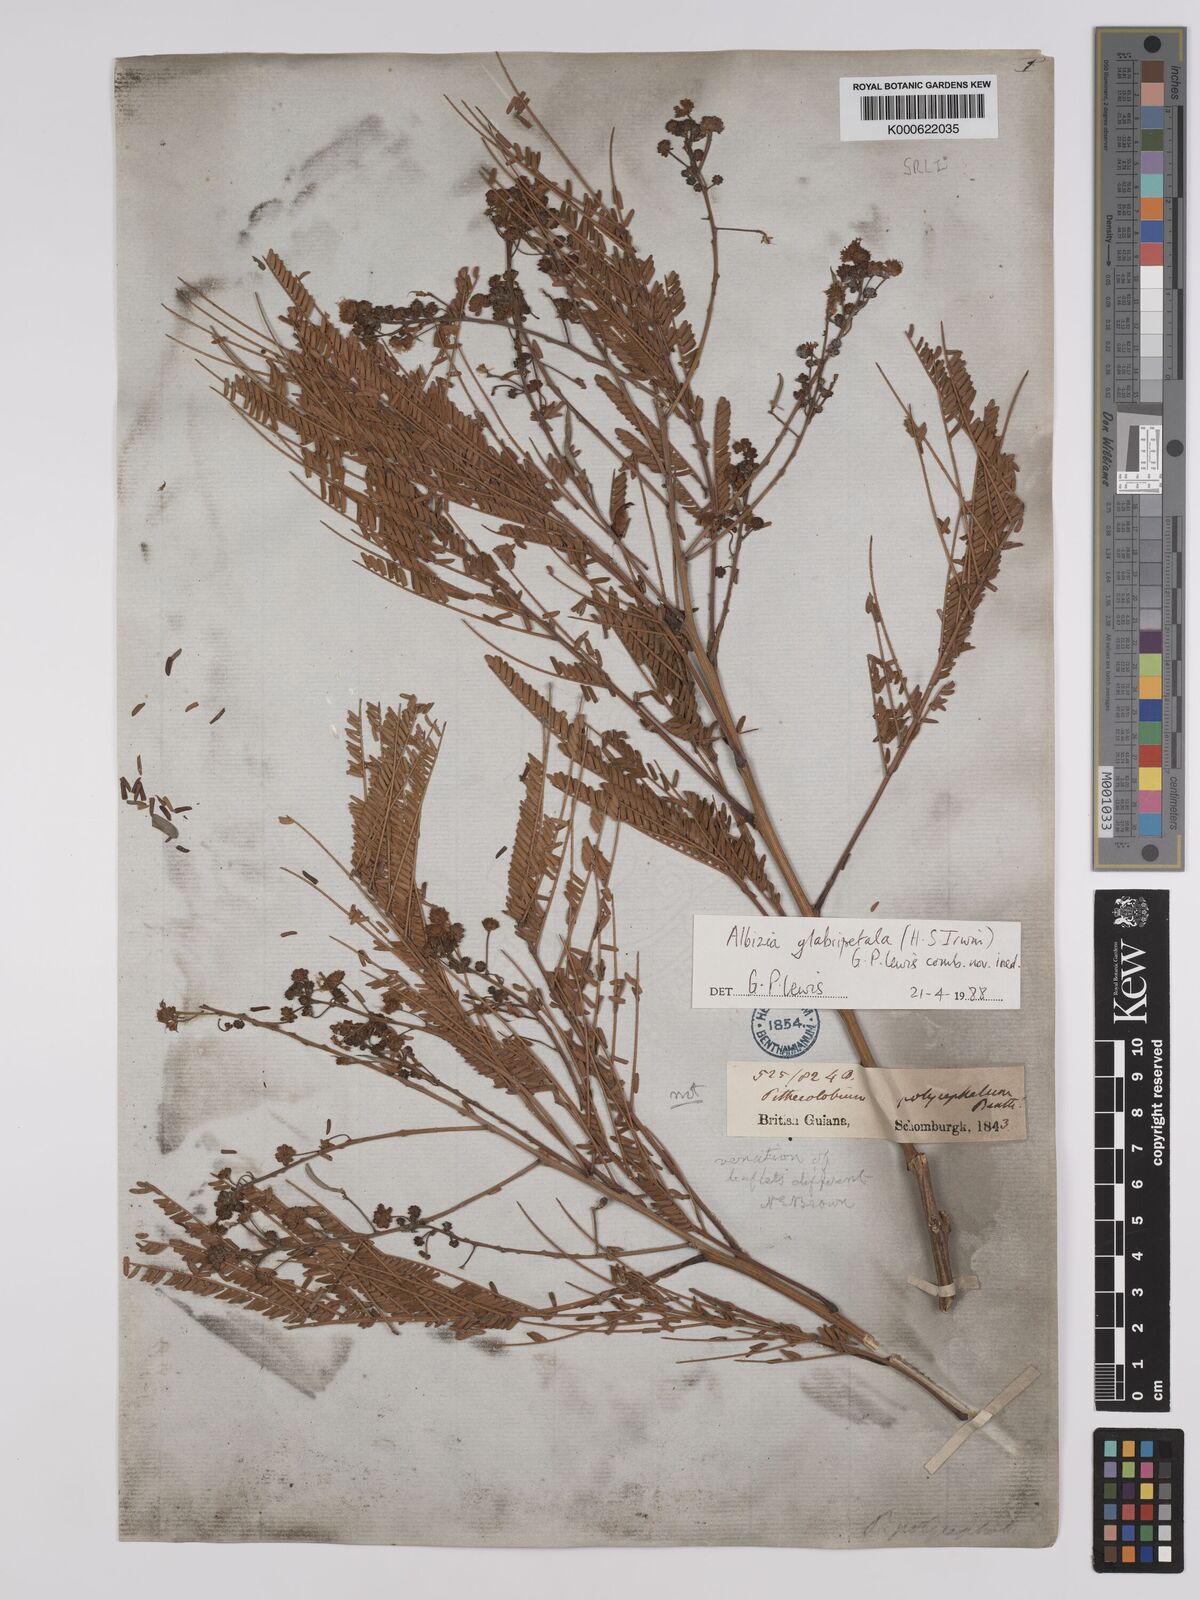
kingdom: Plantae
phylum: Tracheophyta
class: Magnoliopsida
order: Fabales
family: Fabaceae
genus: Albizia
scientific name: Albizia glabripetala
